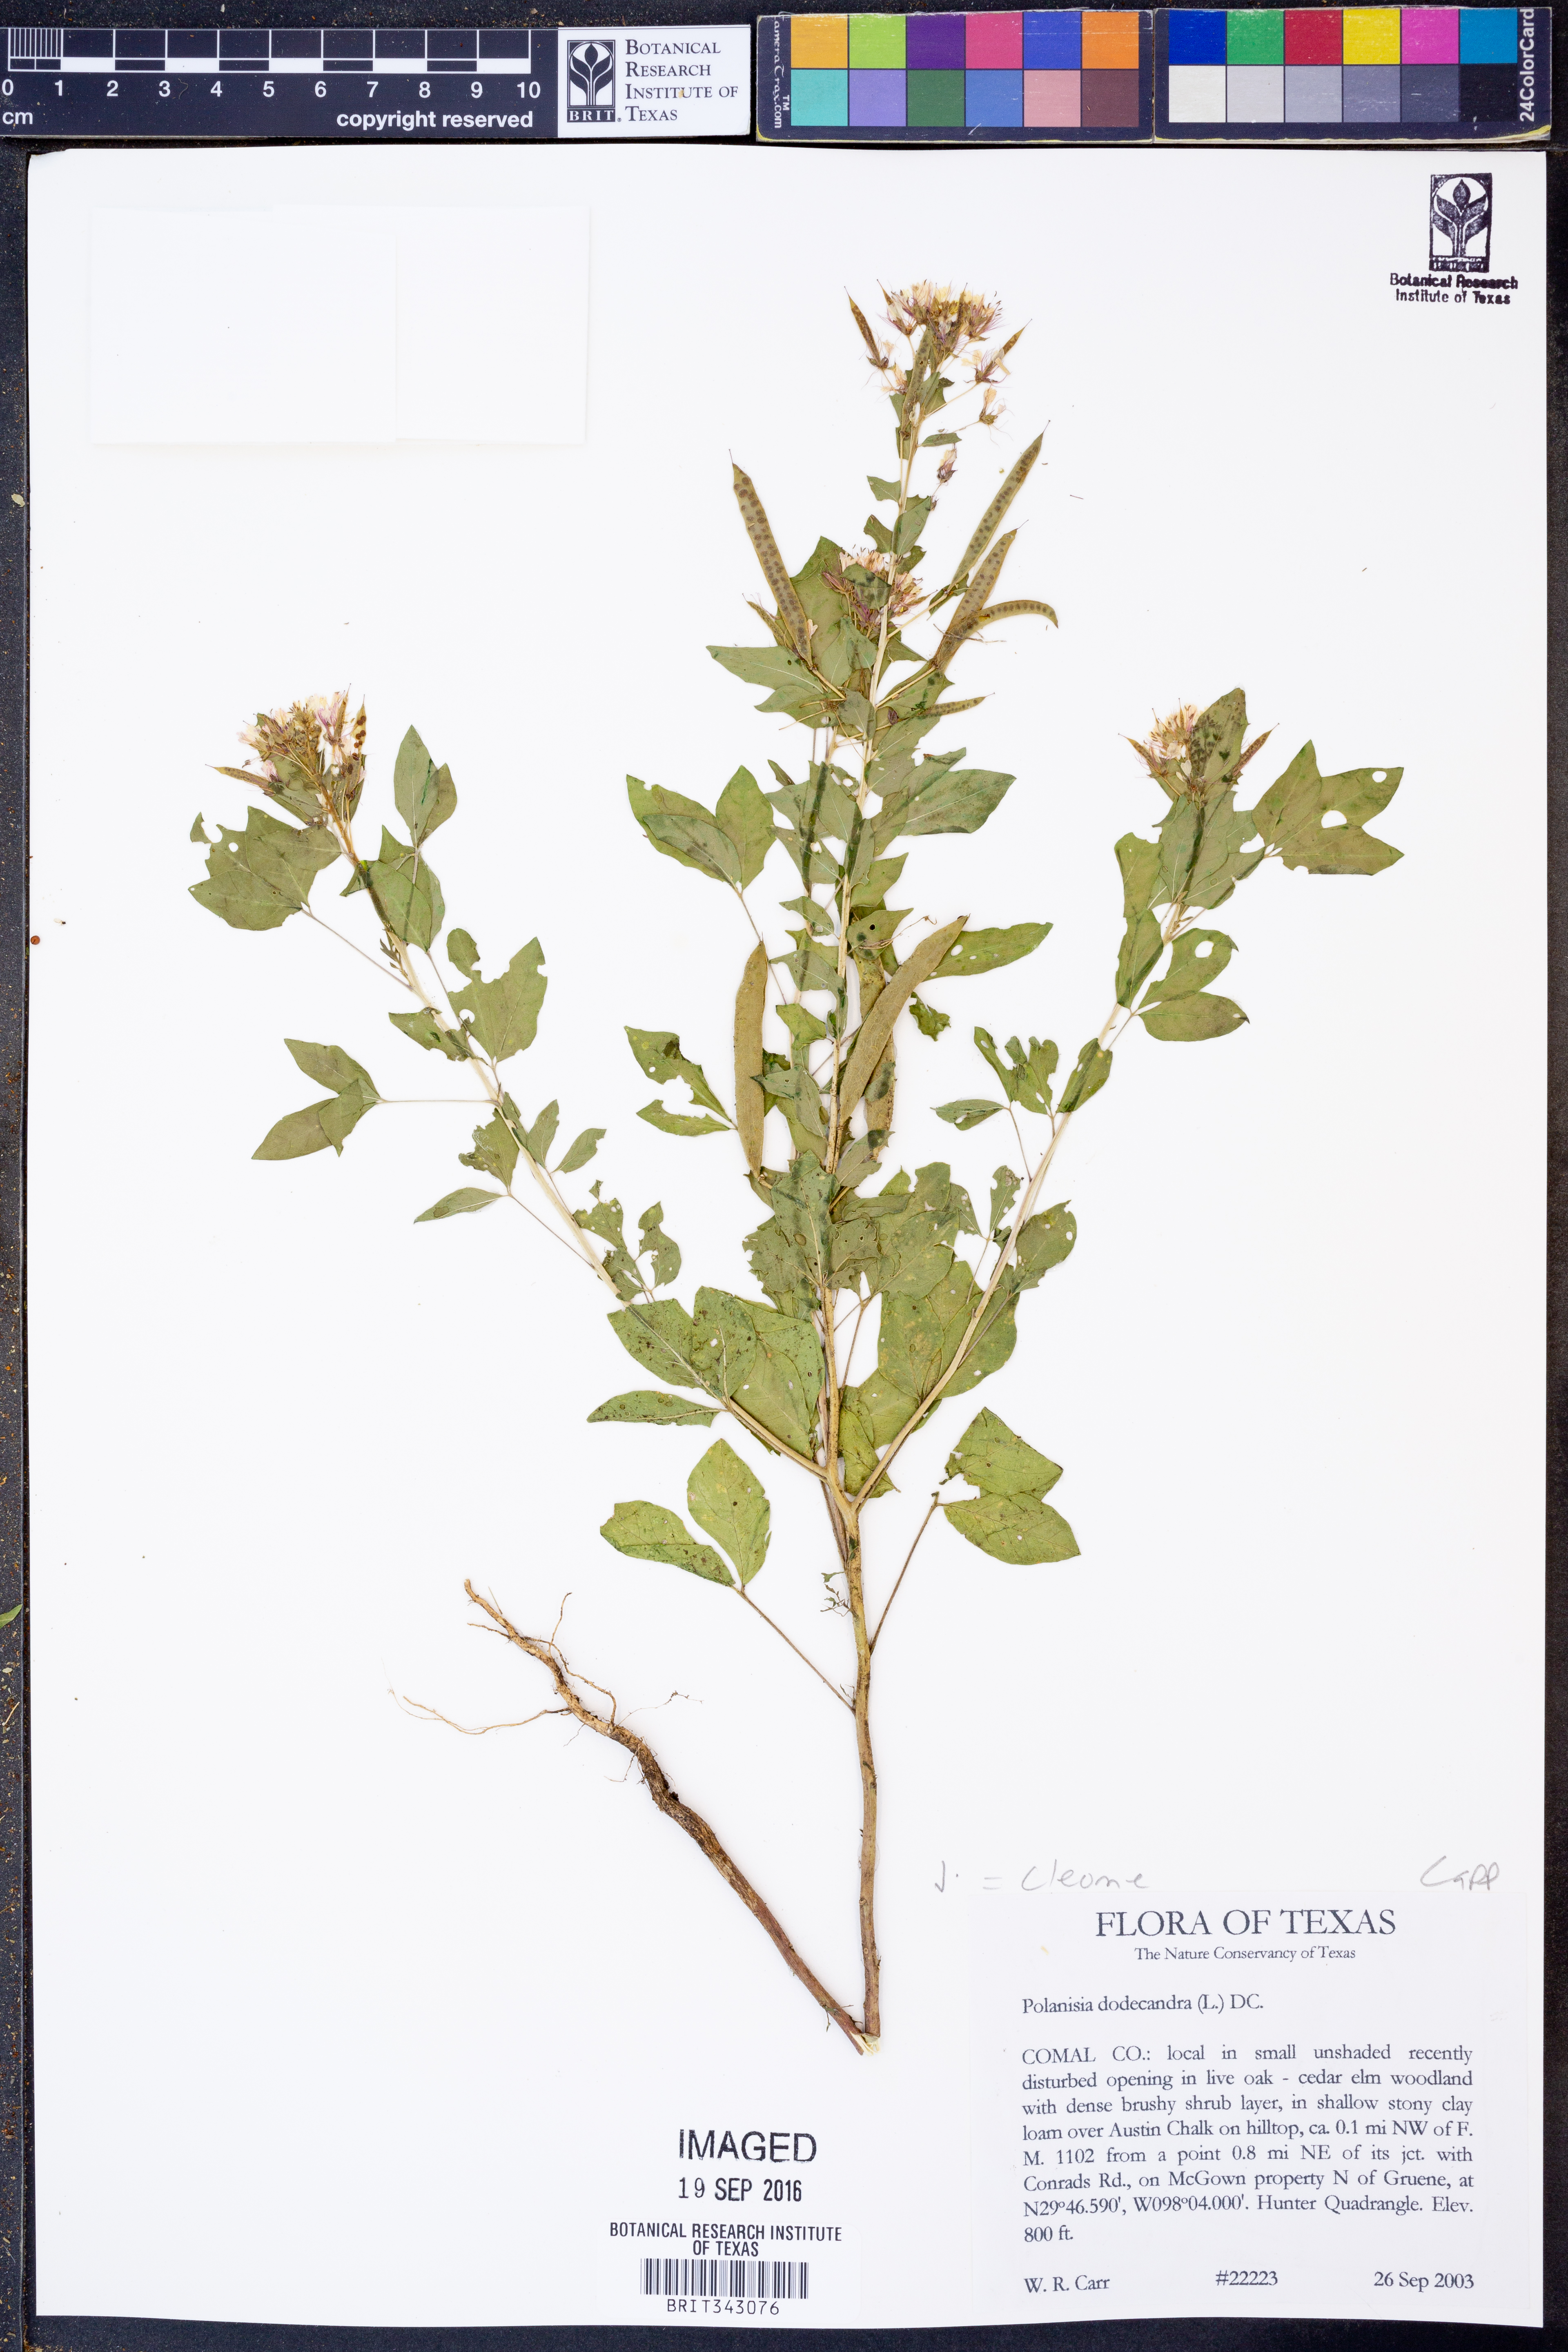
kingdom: Plantae
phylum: Tracheophyta
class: Magnoliopsida
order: Brassicales
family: Cleomaceae
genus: Polanisia
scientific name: Polanisia dodecandra
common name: Clammyweed
